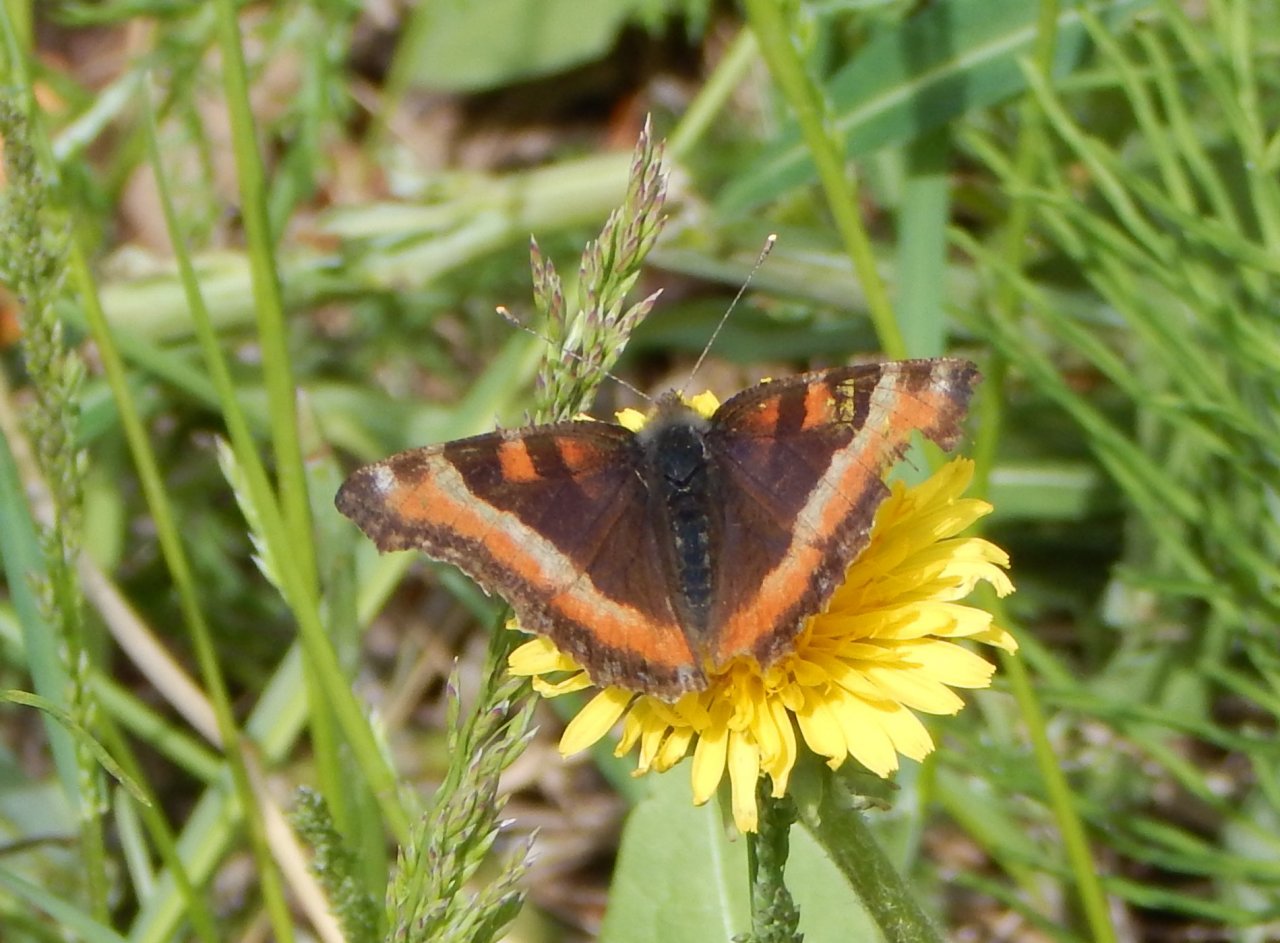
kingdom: Animalia
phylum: Arthropoda
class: Insecta
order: Lepidoptera
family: Nymphalidae
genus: Aglais
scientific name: Aglais milberti
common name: Milbert's Tortoiseshell
